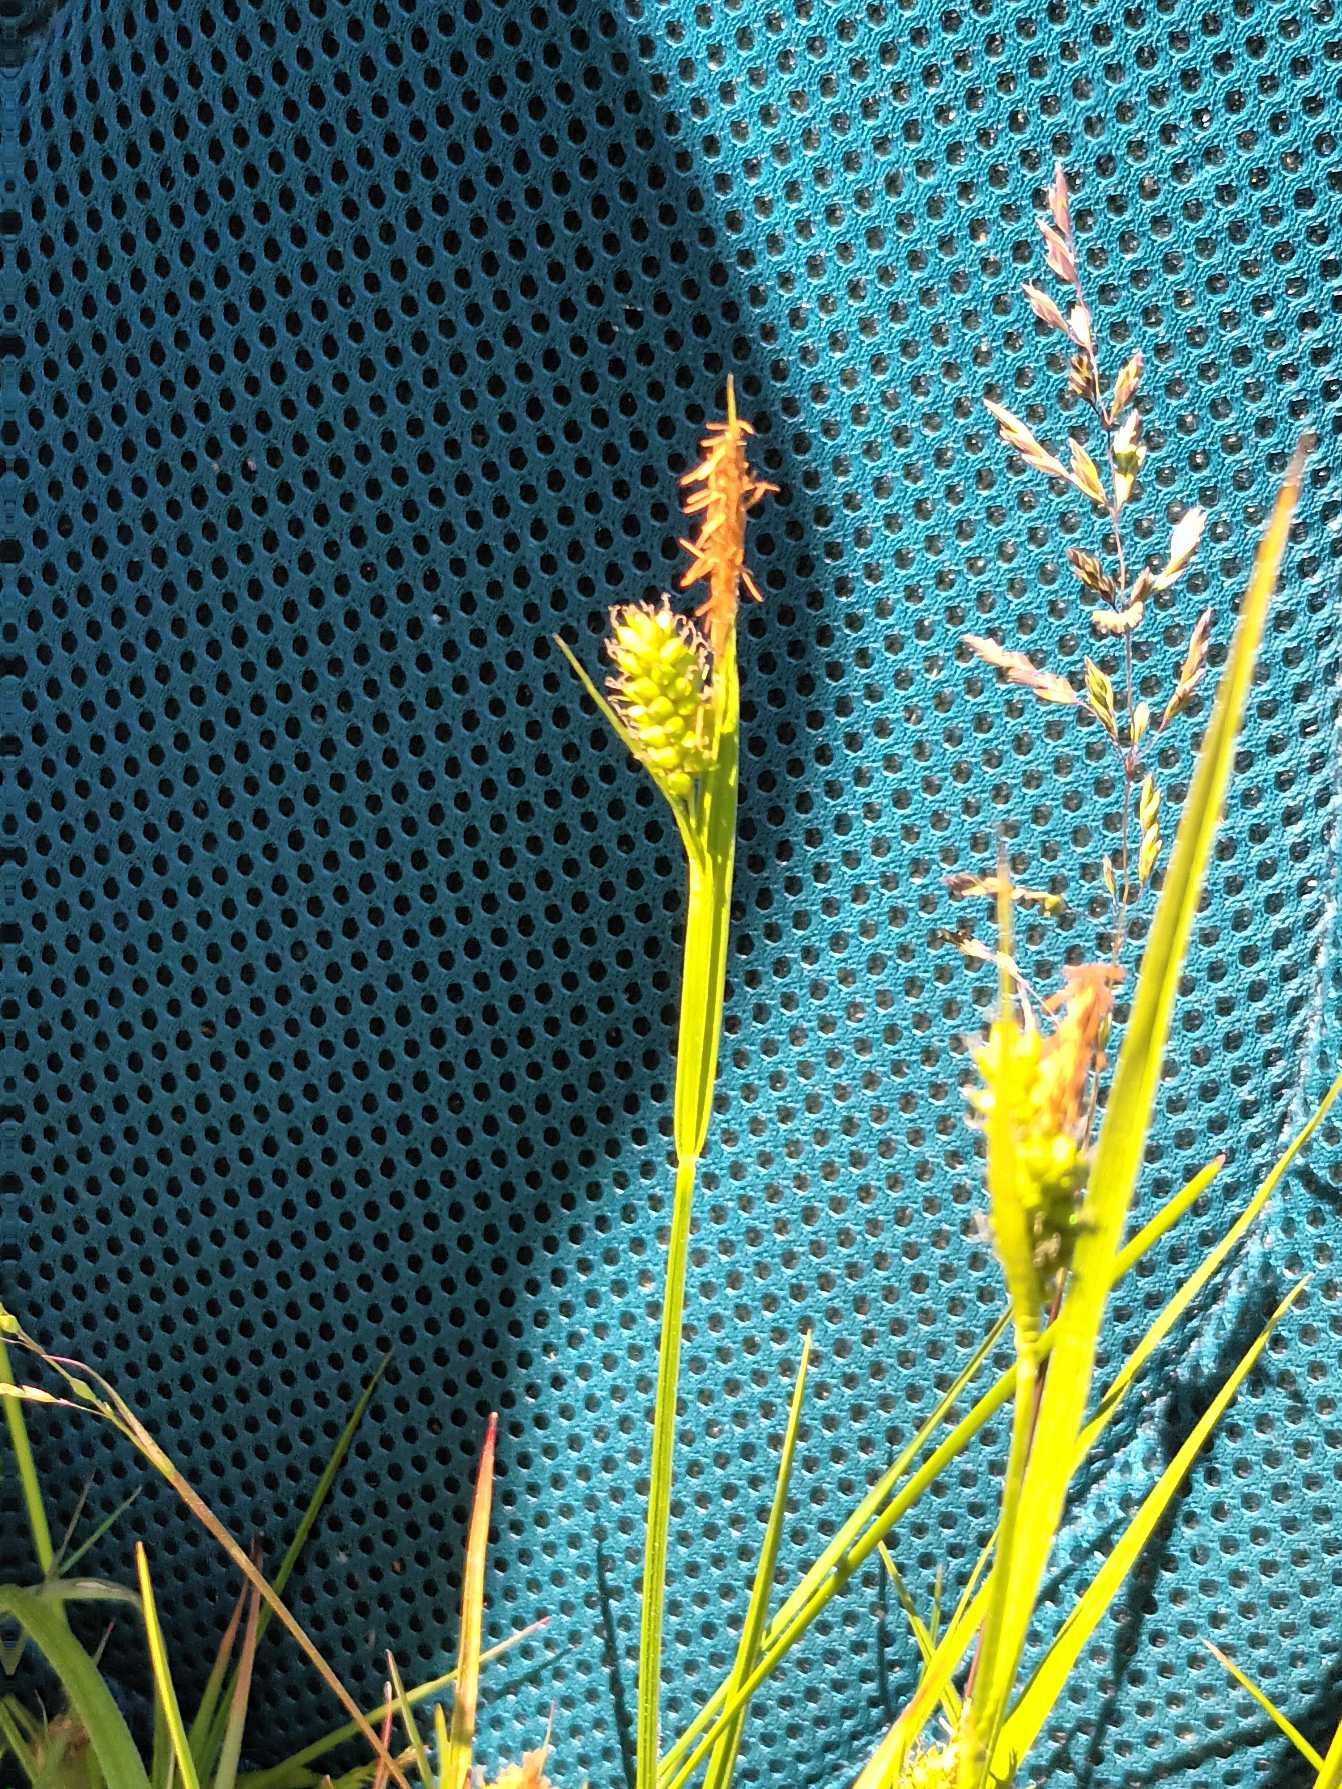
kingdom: Plantae
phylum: Tracheophyta
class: Liliopsida
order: Poales
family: Cyperaceae
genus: Carex
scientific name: Carex pallescens
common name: Bleg star
